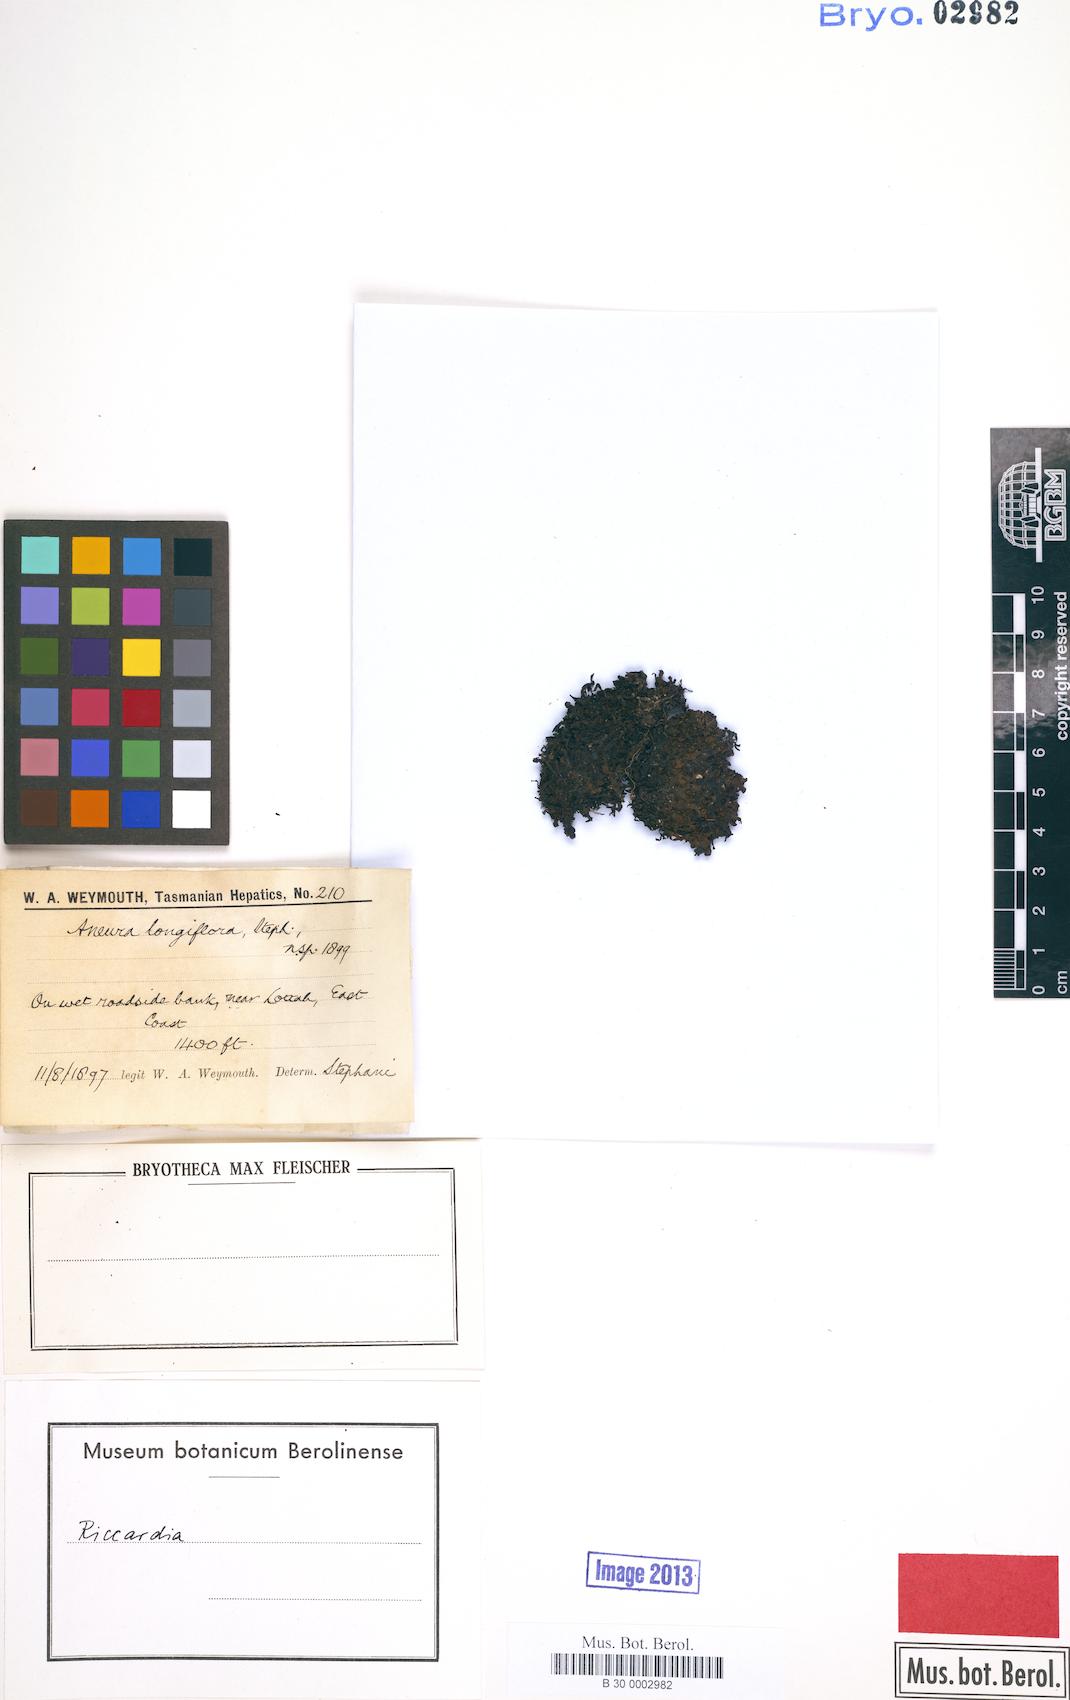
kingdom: Plantae
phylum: Marchantiophyta
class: Jungermanniopsida
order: Metzgeriales
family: Aneuraceae
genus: Riccardia
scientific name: Riccardia longiflora
